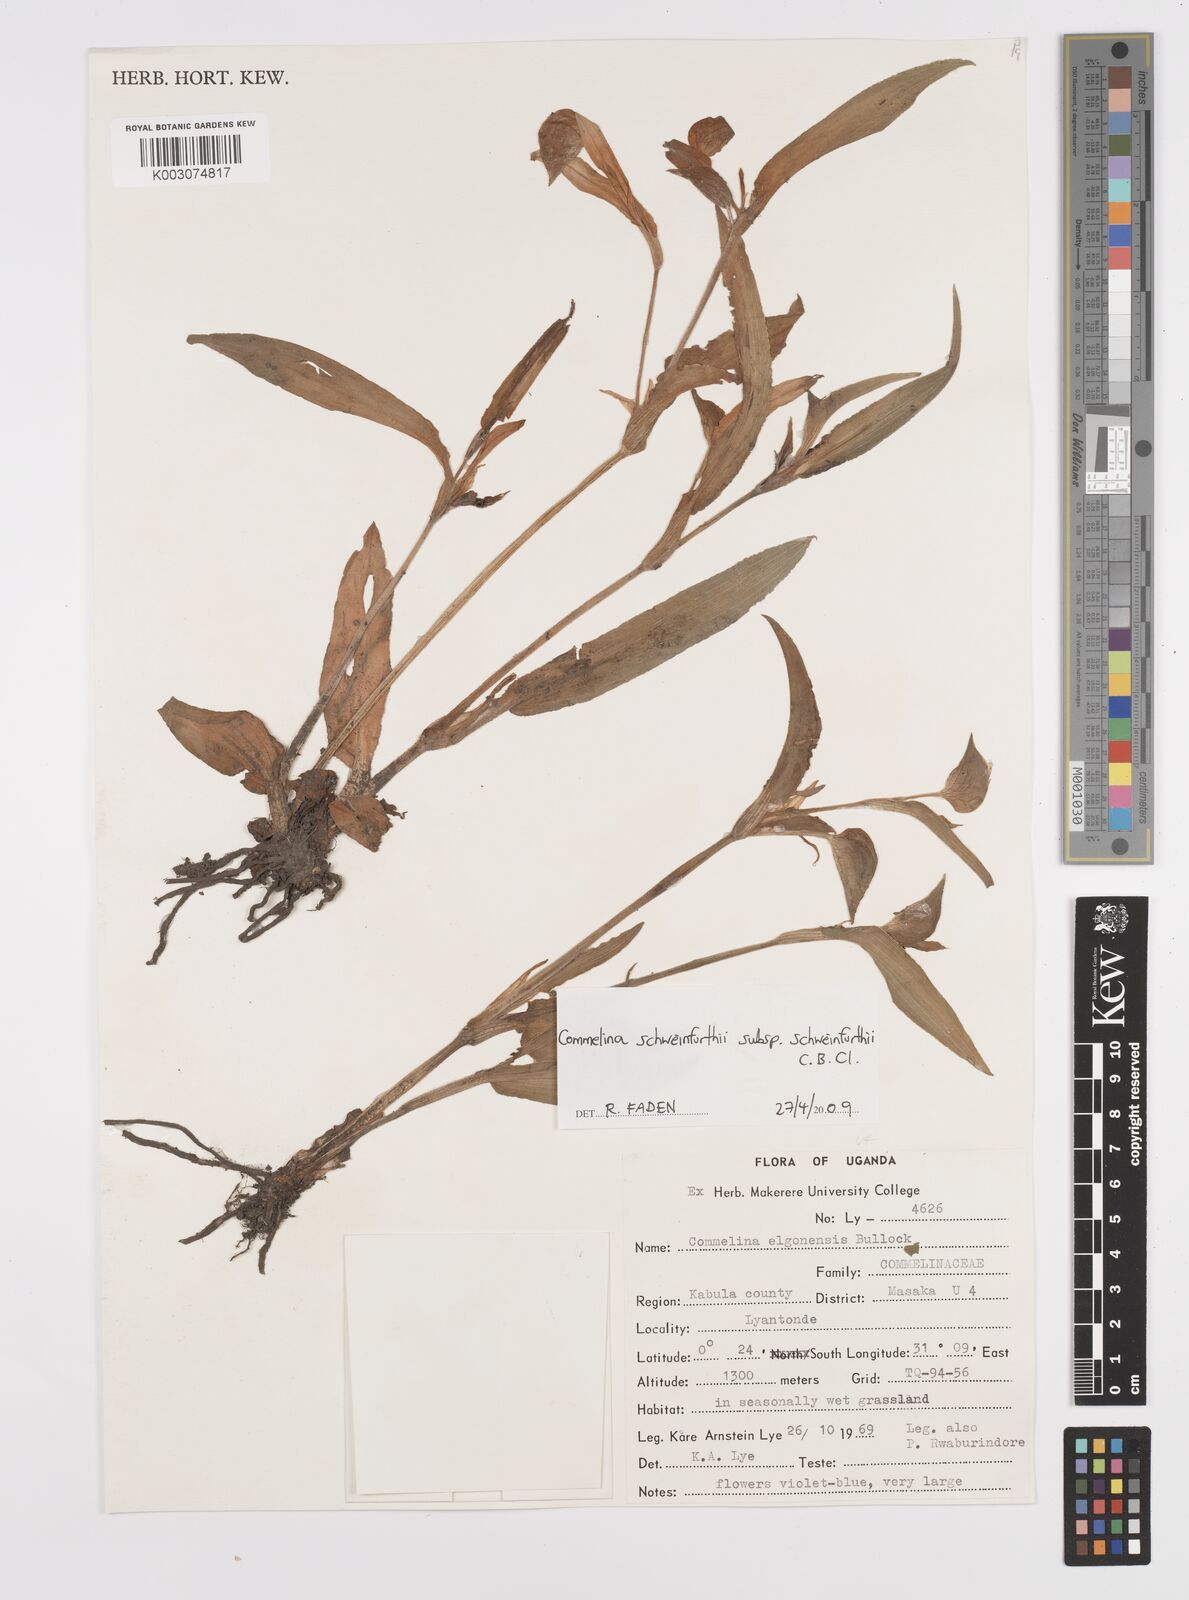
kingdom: Plantae
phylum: Tracheophyta
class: Liliopsida
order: Commelinales
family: Commelinaceae
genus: Commelina
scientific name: Commelina schweinfurthii
